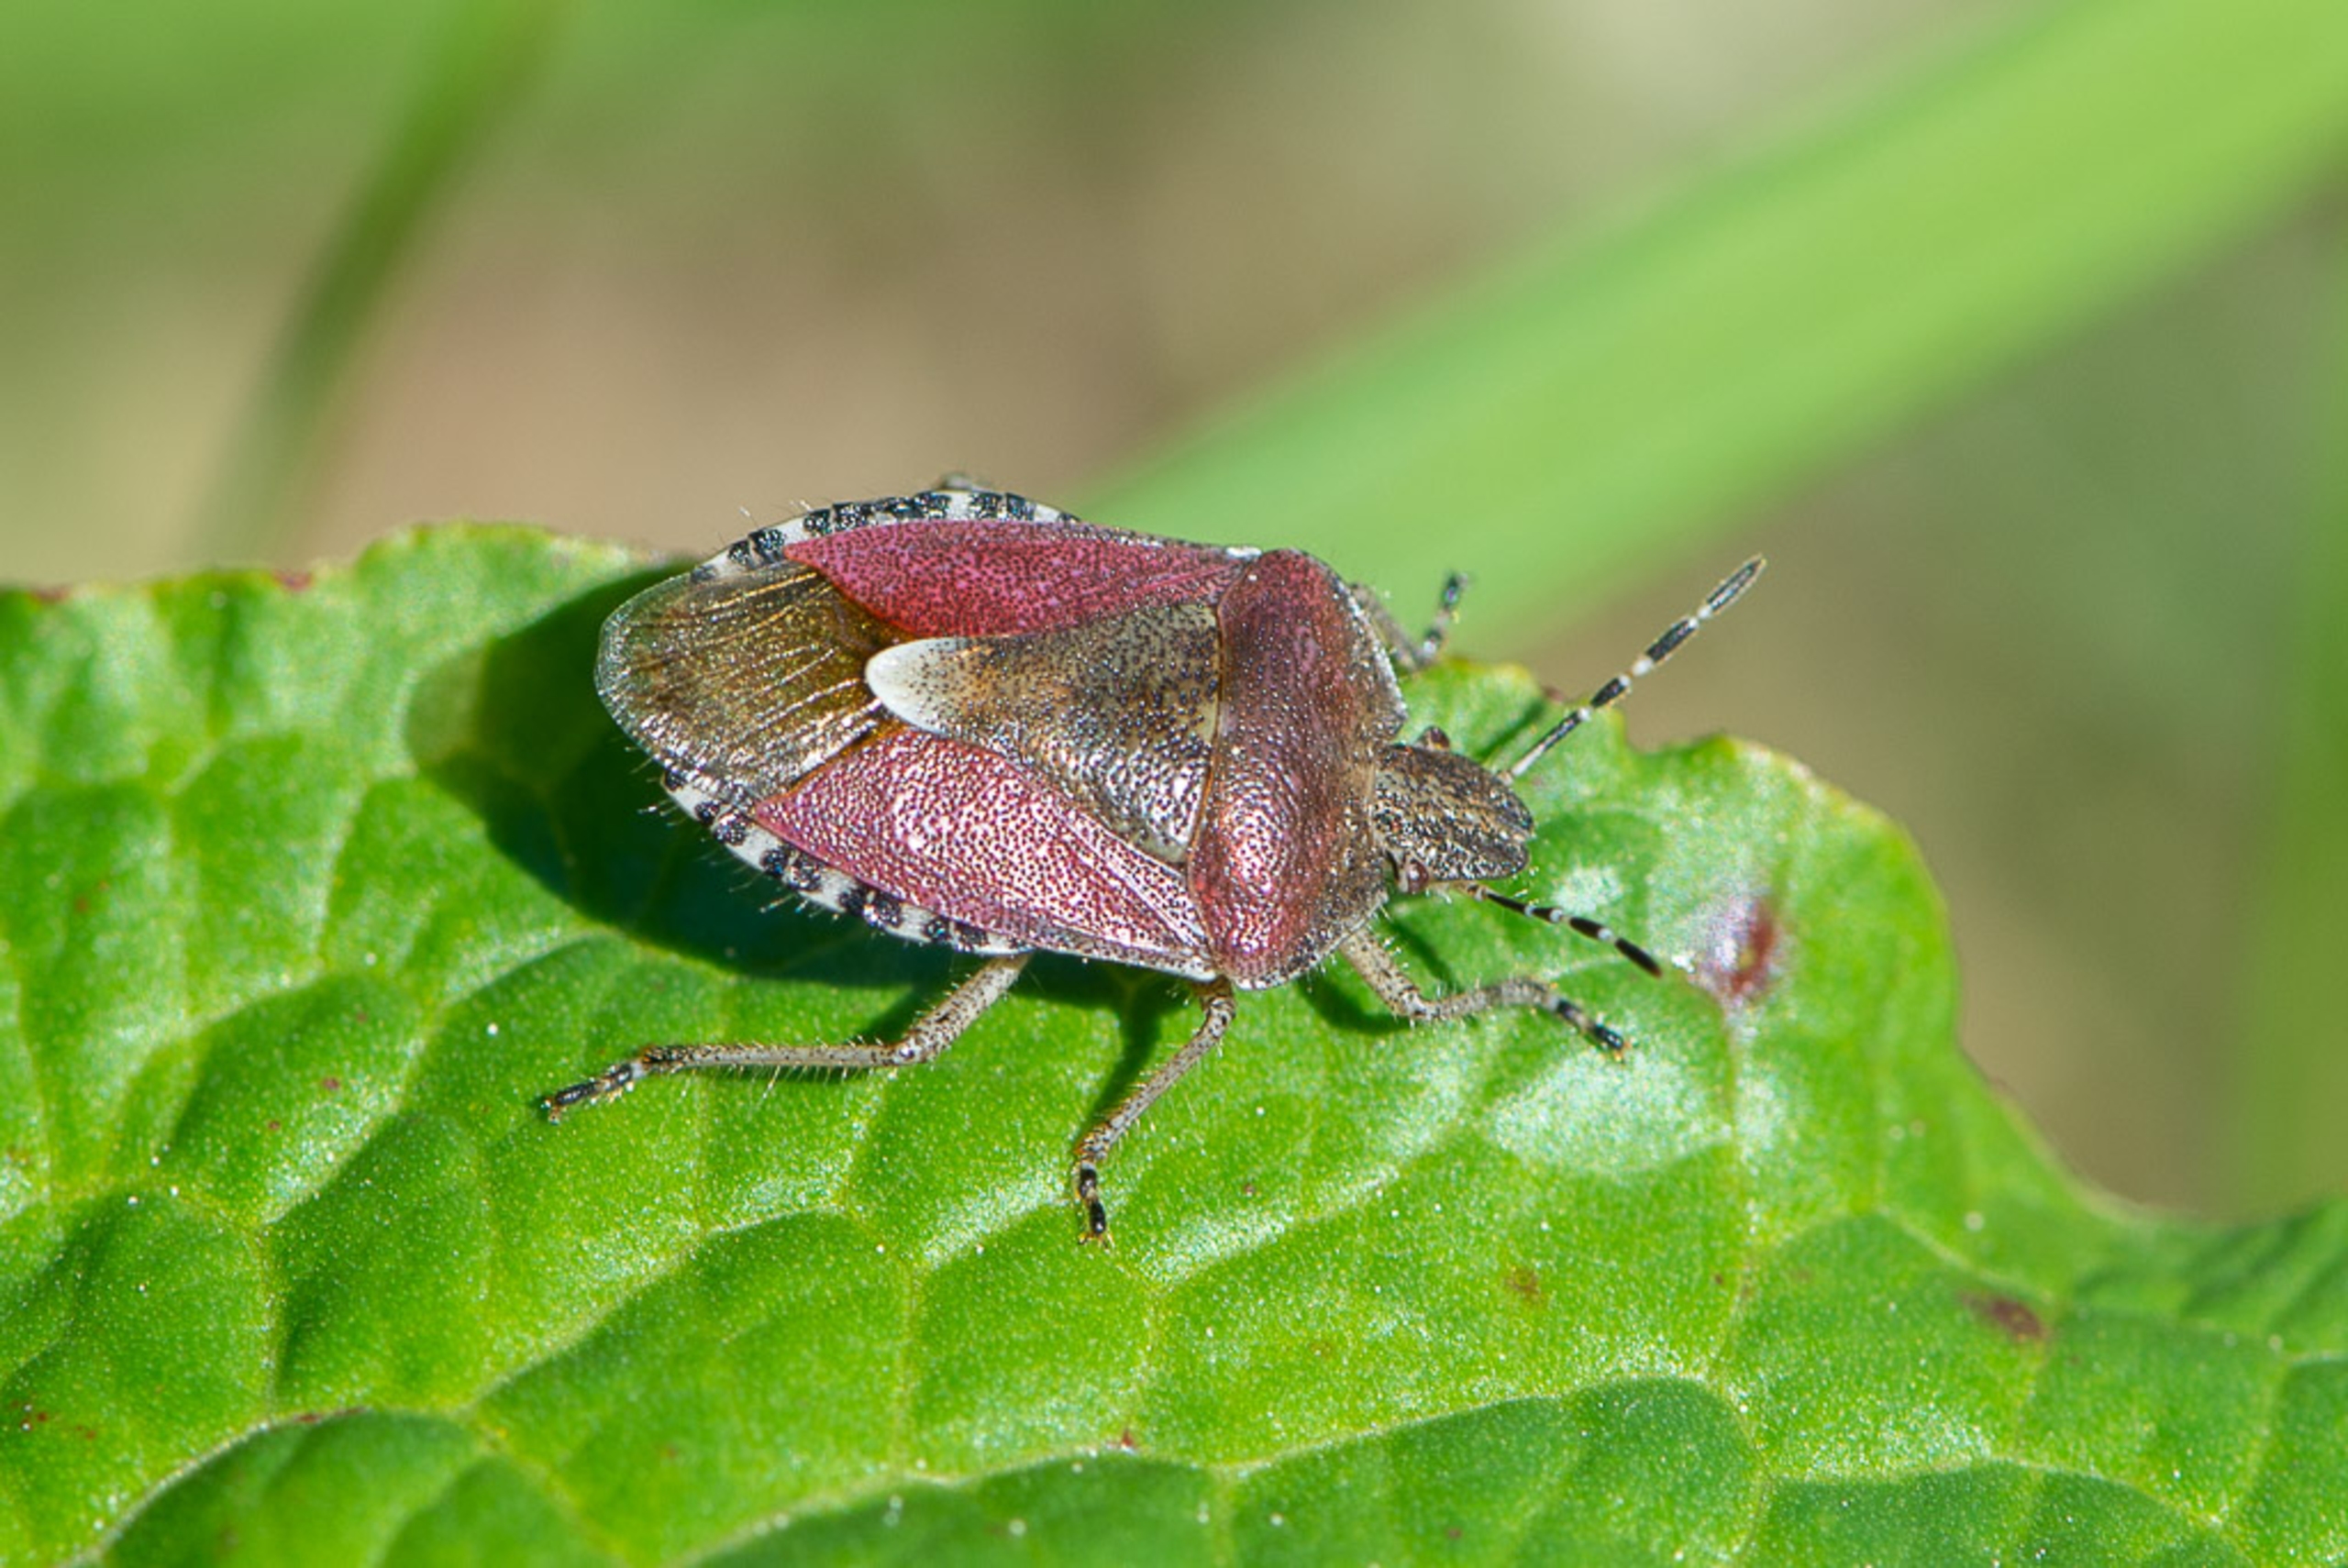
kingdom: Animalia
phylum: Arthropoda
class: Insecta
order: Hemiptera
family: Pentatomidae
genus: Dolycoris
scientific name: Dolycoris baccarum
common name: Almindelig bærtæge
